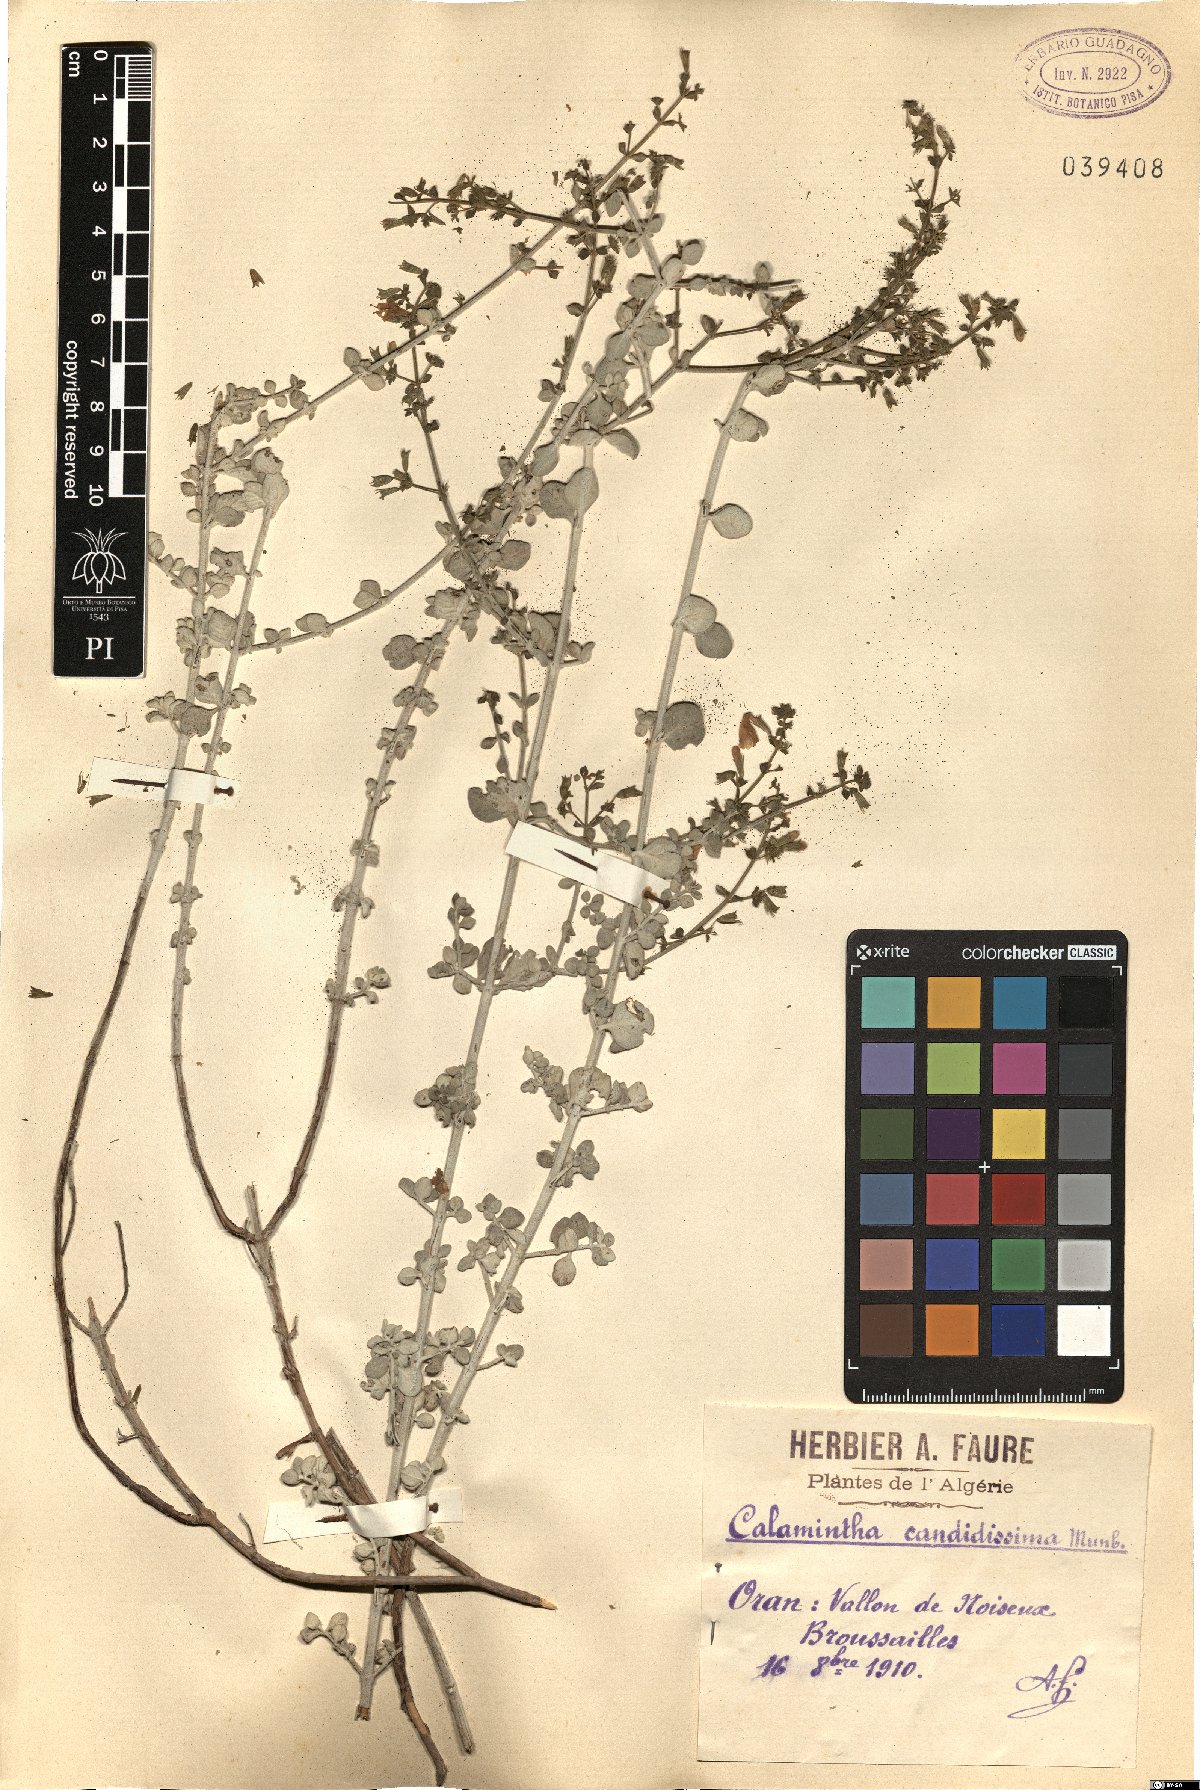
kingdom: Plantae
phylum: Tracheophyta
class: Magnoliopsida
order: Lamiales
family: Lamiaceae
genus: Clinopodium
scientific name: Clinopodium candidissimum
